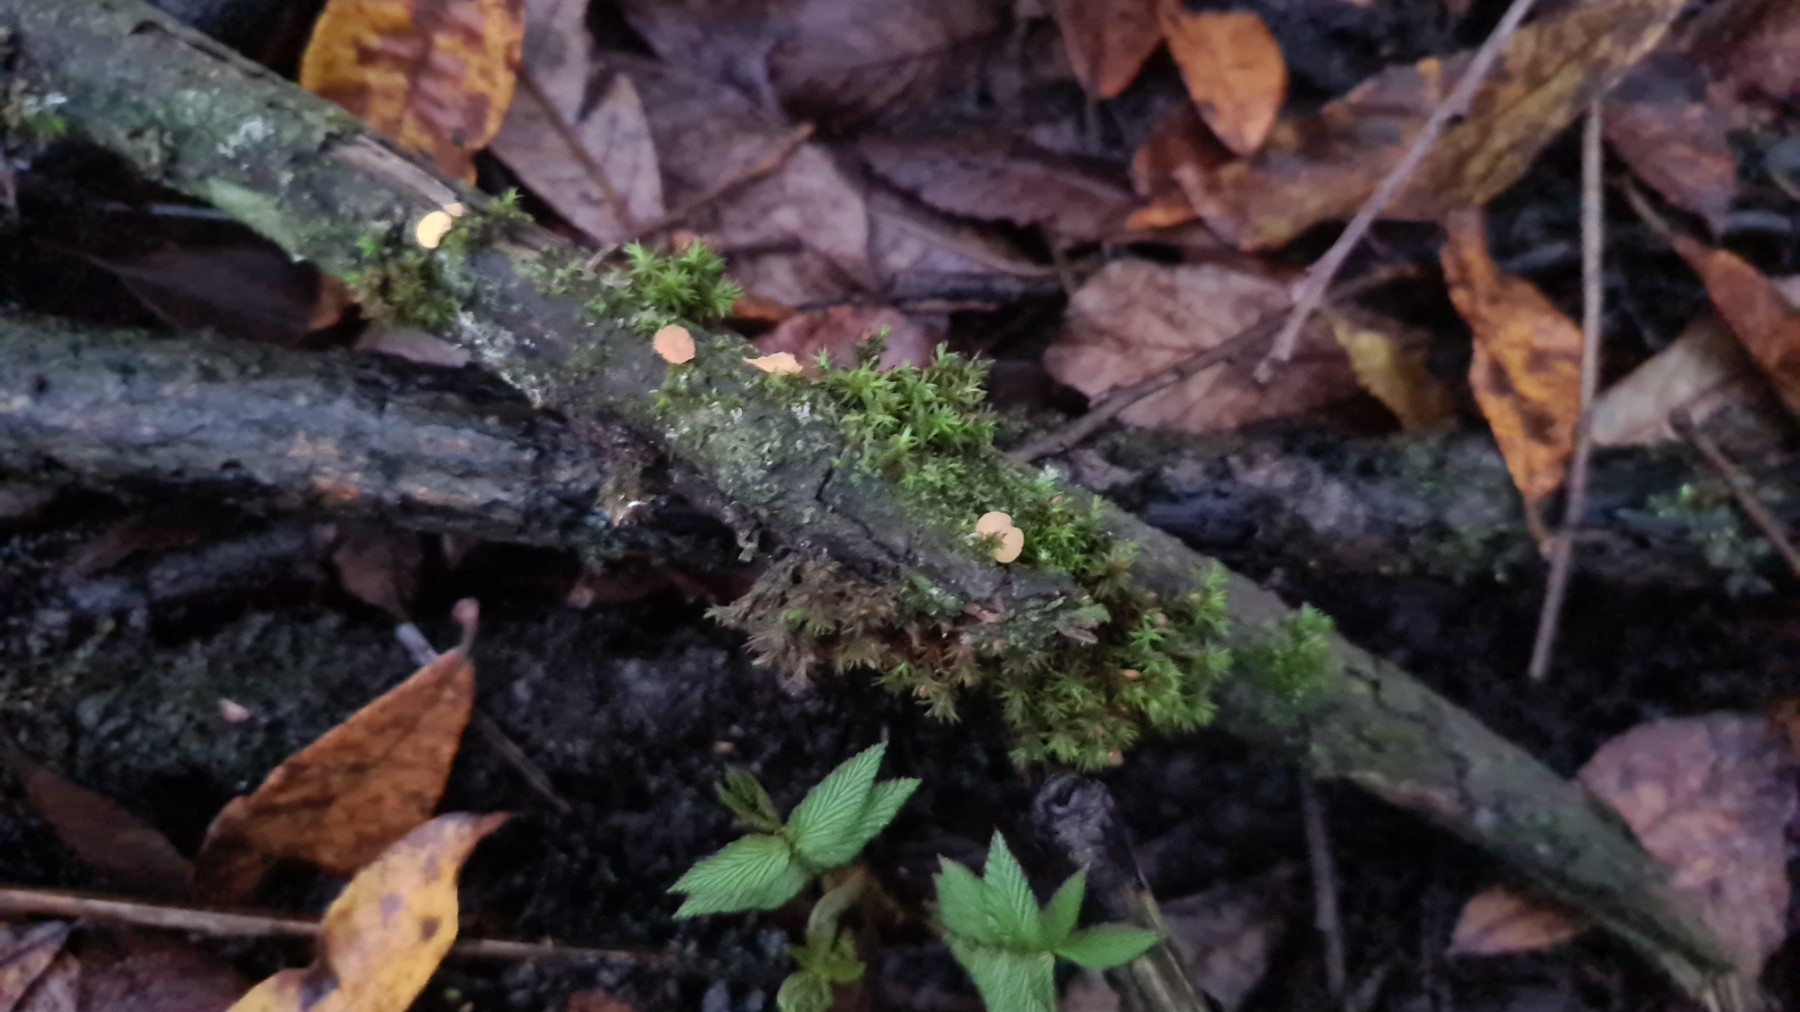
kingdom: Fungi
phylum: Ascomycota
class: Leotiomycetes
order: Helotiales
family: Helotiaceae
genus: Hymenoscyphus
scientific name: Hymenoscyphus
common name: stilkskive
